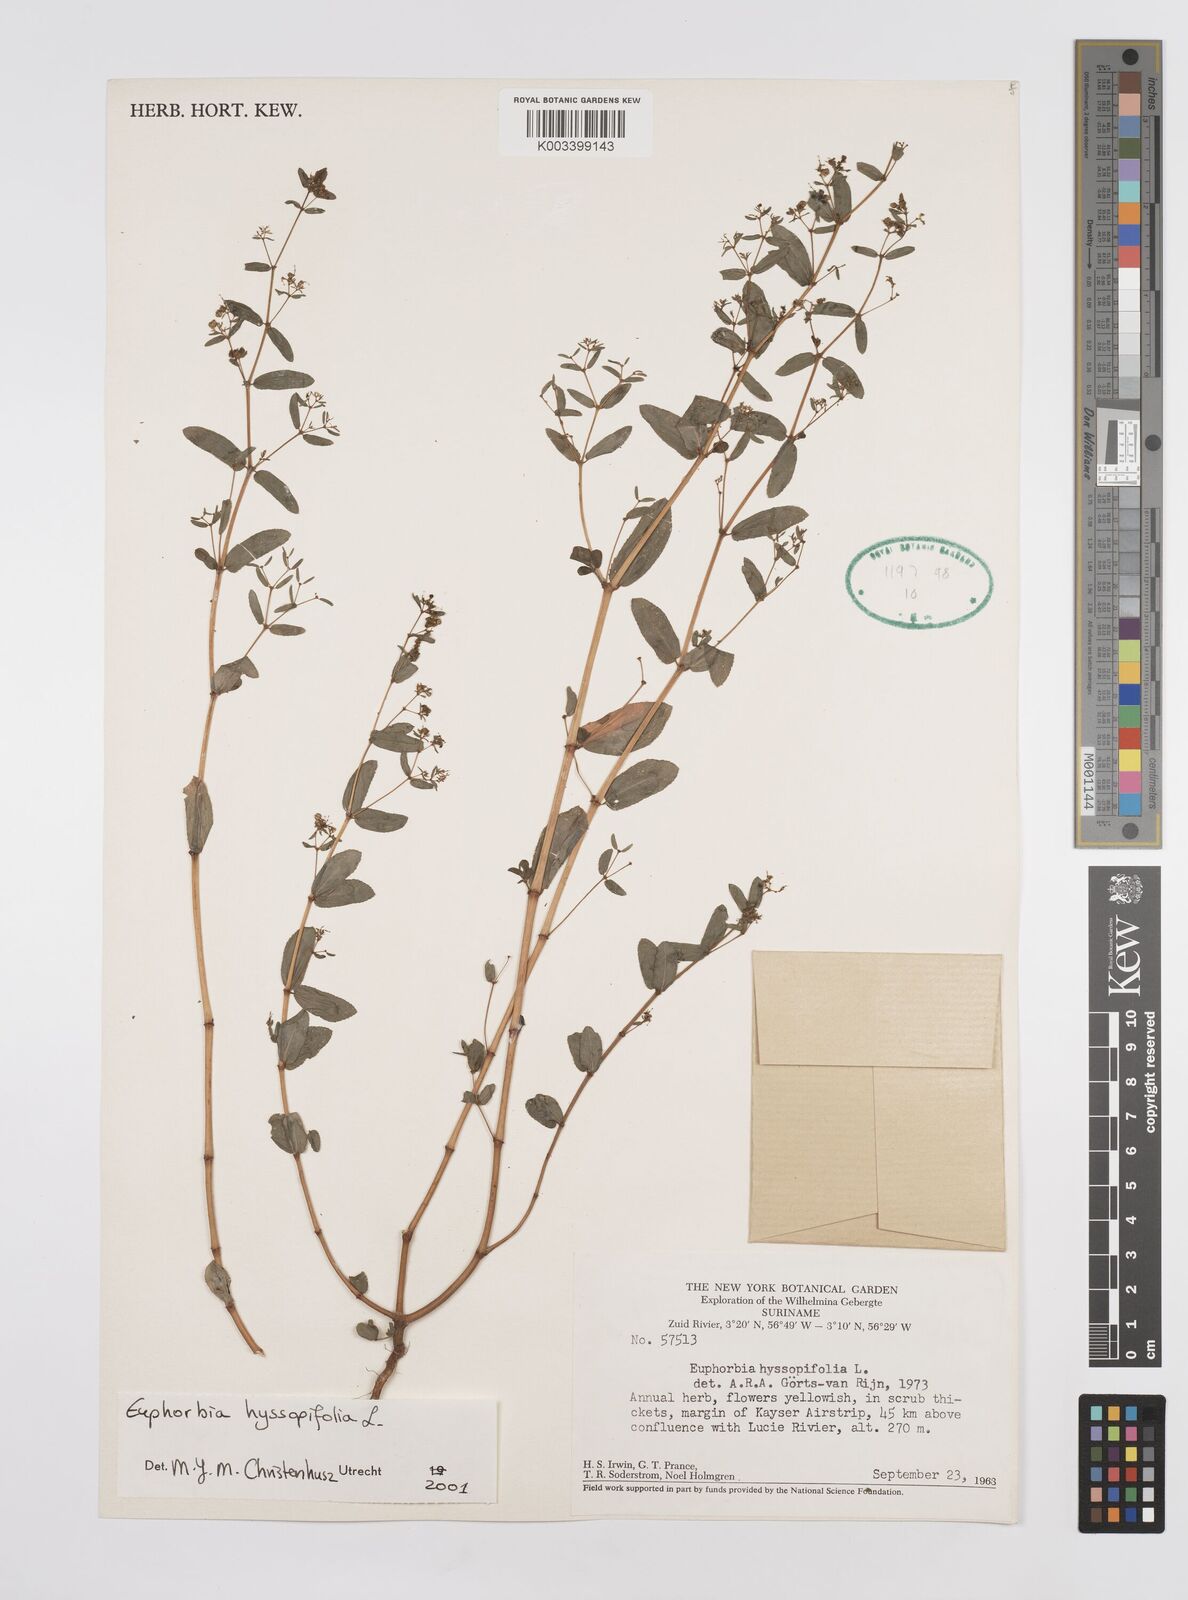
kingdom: Plantae
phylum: Tracheophyta
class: Magnoliopsida
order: Malpighiales
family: Euphorbiaceae
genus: Euphorbia
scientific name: Euphorbia hyssopifolia
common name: Hyssopleaf sandmat
